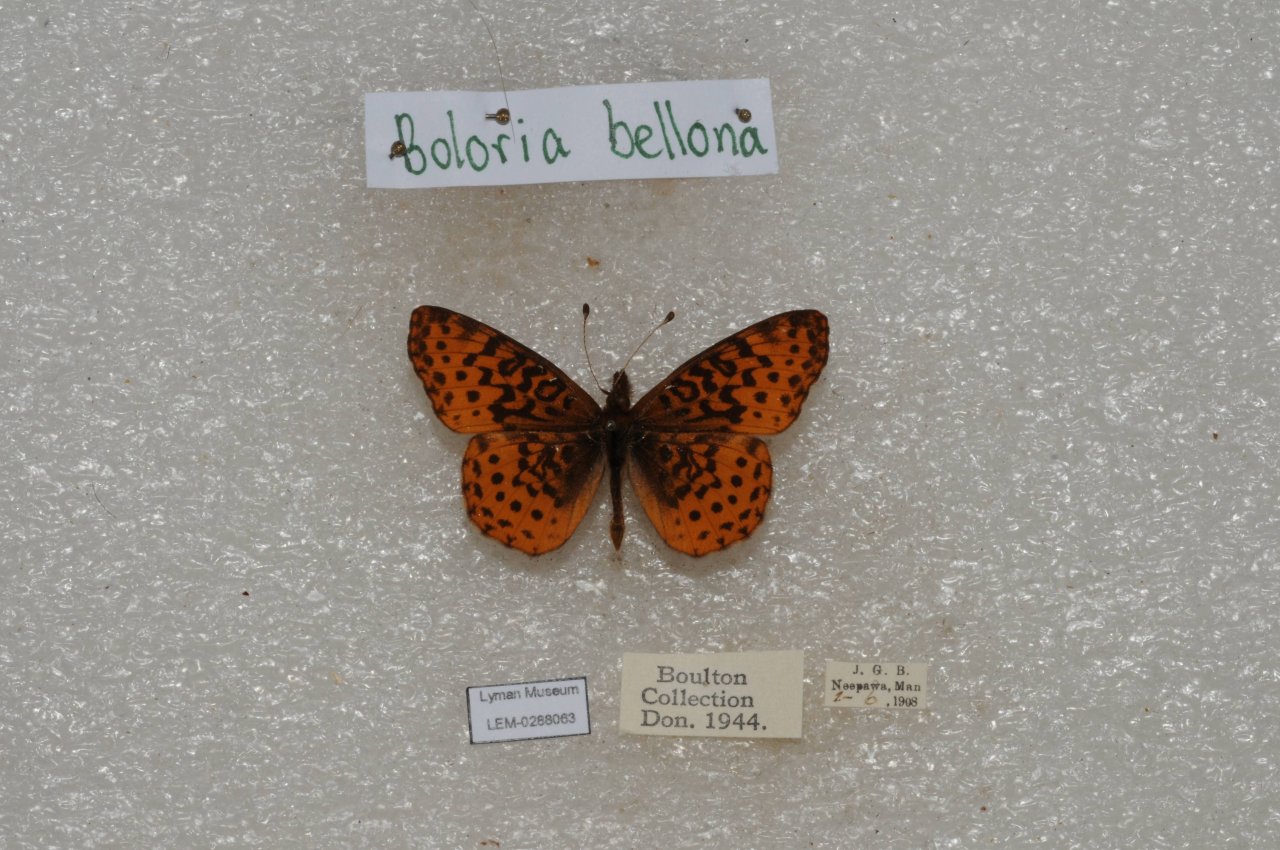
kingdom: Animalia
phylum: Arthropoda
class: Insecta
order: Lepidoptera
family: Nymphalidae
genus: Clossiana
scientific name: Clossiana toddi
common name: Meadow Fritillary
